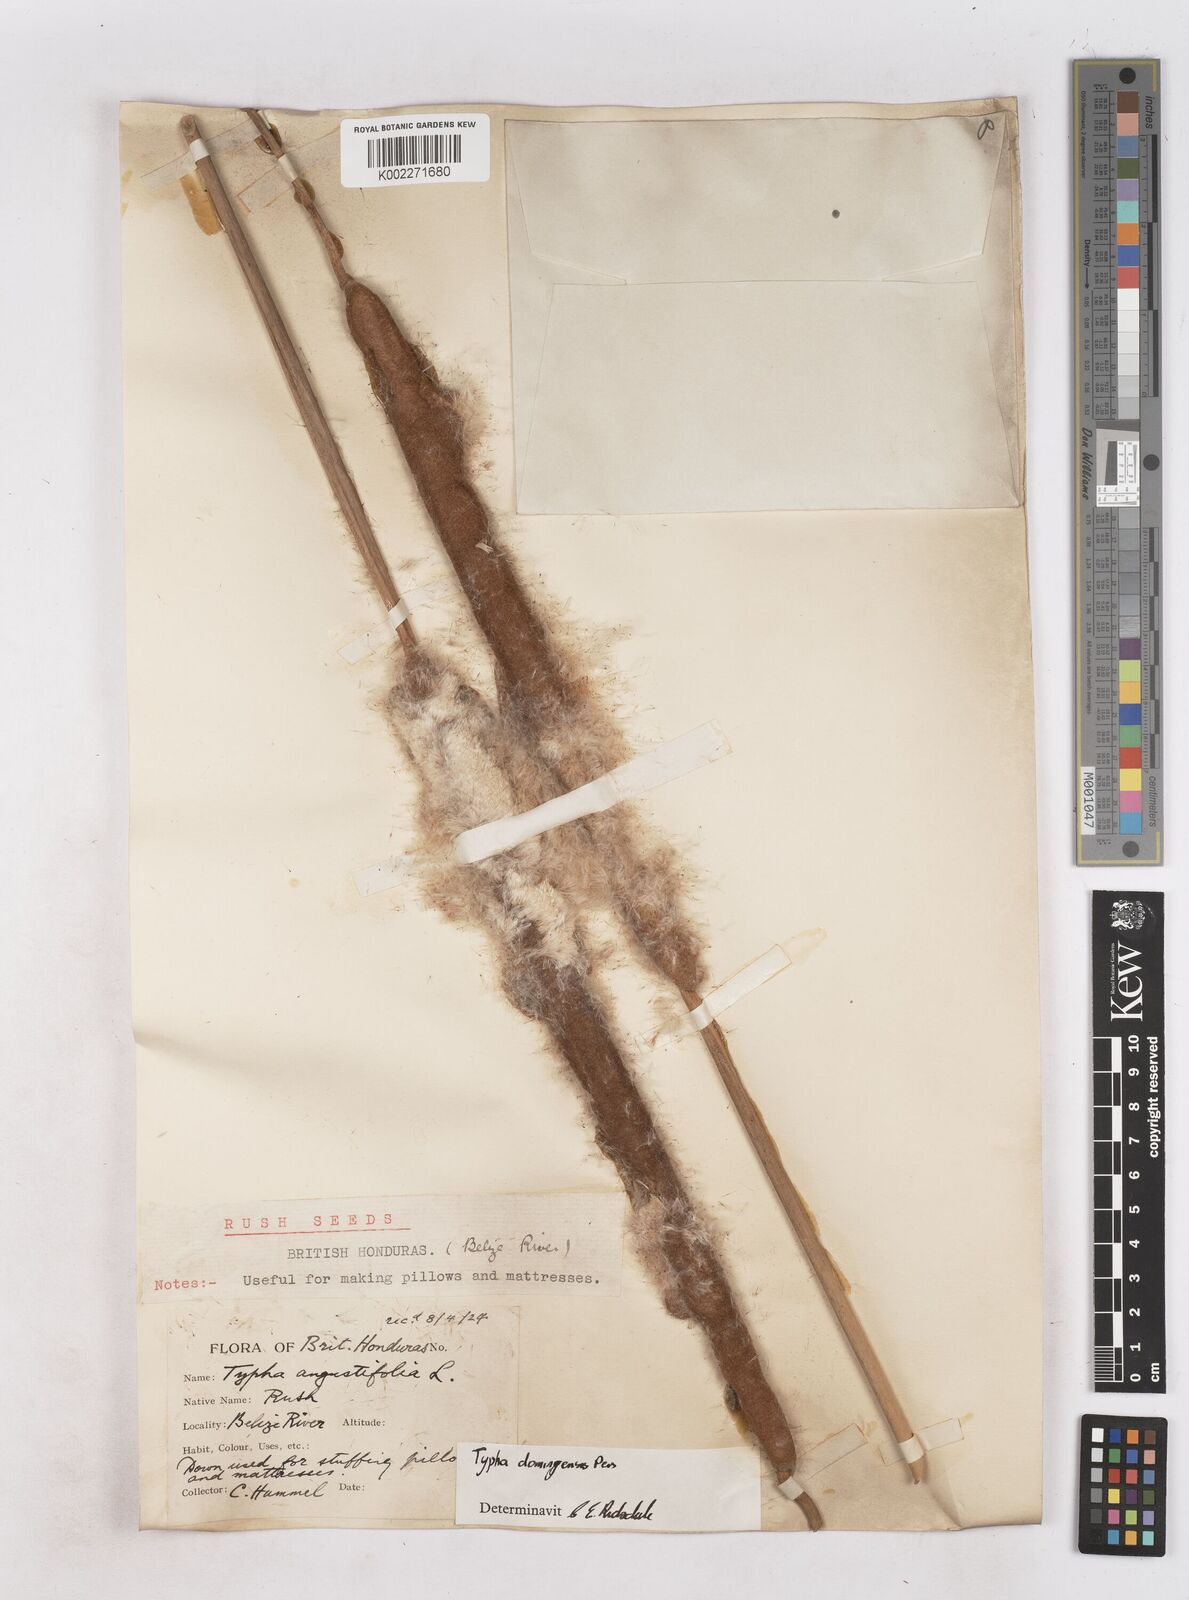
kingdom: Plantae
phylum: Tracheophyta
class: Liliopsida
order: Poales
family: Typhaceae
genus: Typha
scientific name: Typha domingensis
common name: Southern cattail
